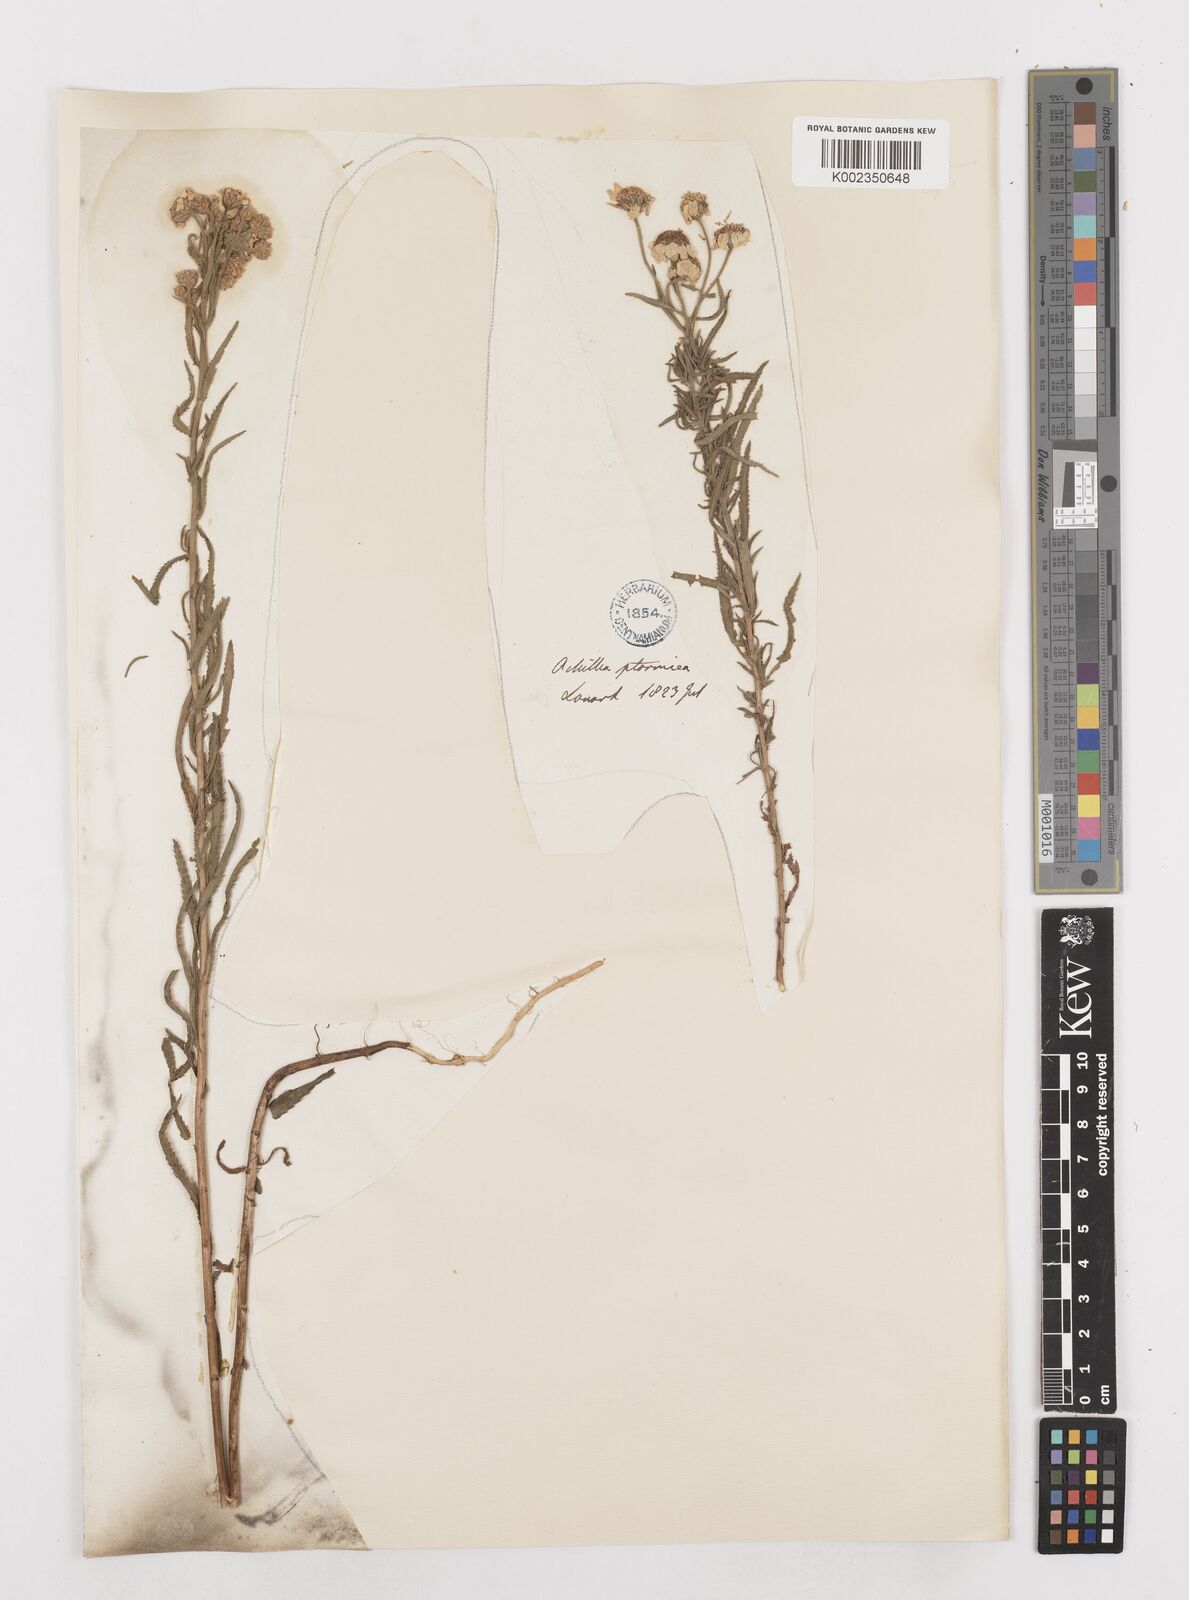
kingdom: Plantae
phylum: Tracheophyta
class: Magnoliopsida
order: Asterales
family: Asteraceae
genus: Achillea
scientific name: Achillea ptarmica
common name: Sneezeweed
